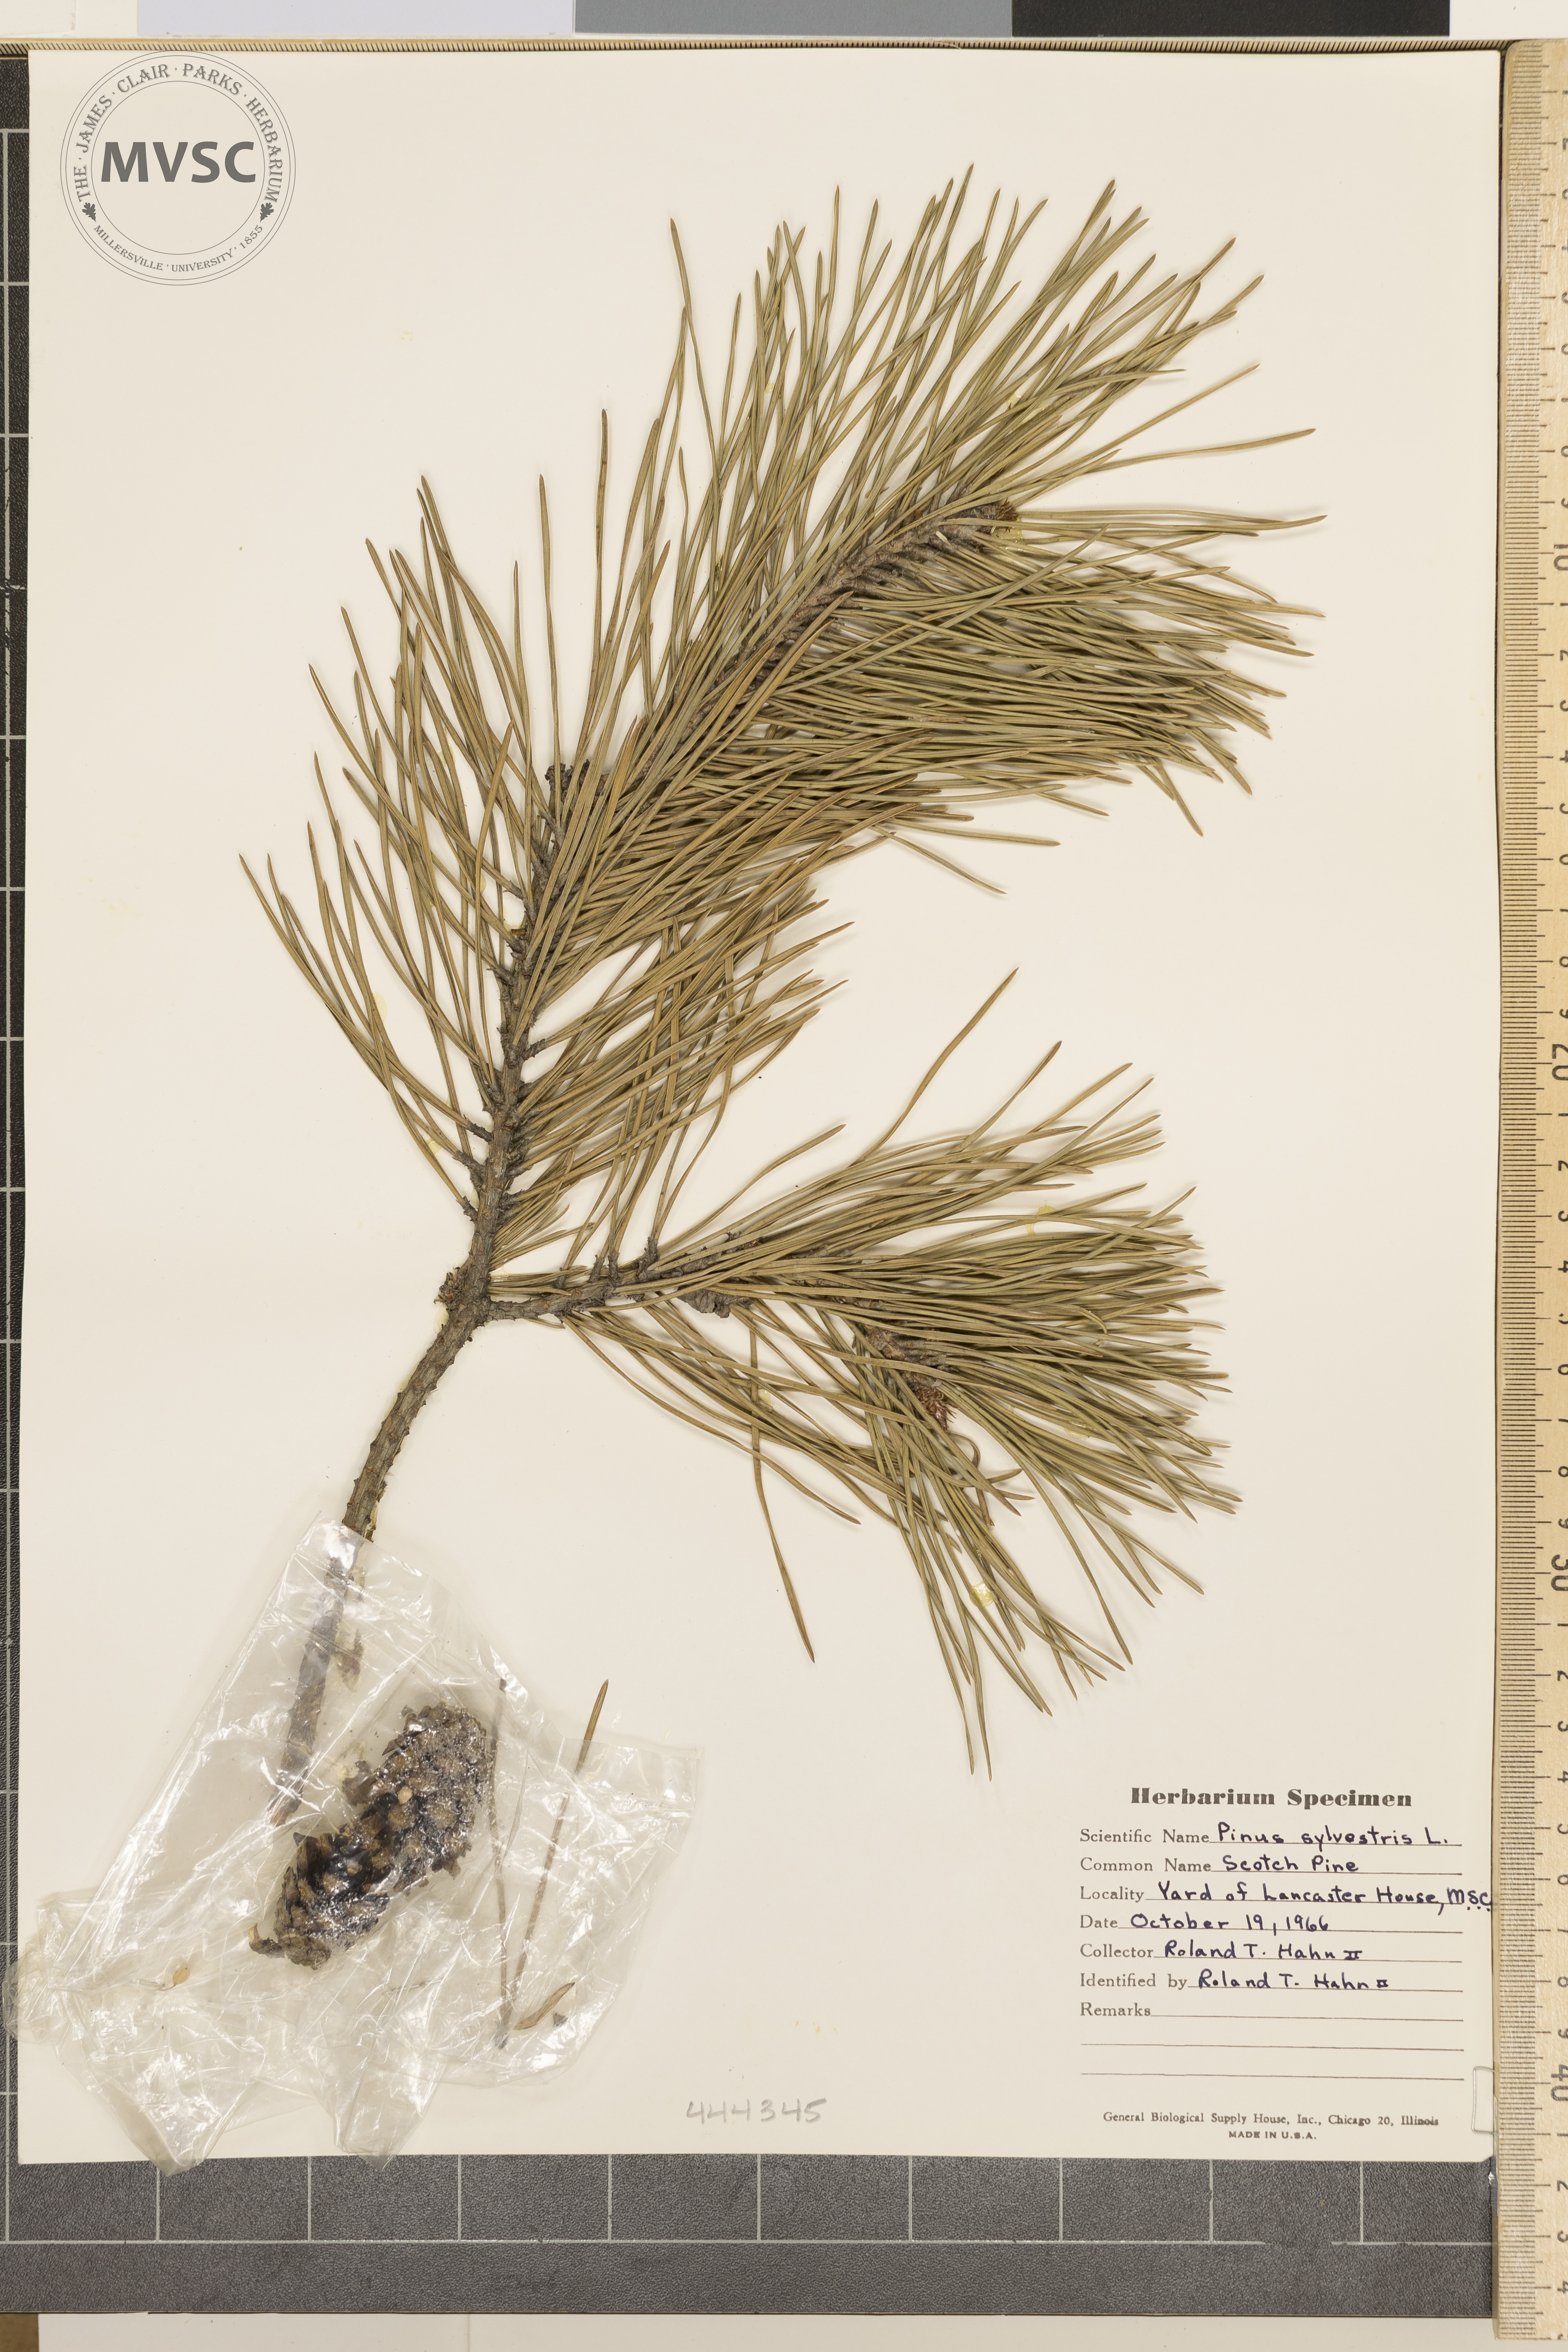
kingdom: Plantae
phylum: Tracheophyta
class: Pinopsida
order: Pinales
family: Pinaceae
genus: Pinus
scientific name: Pinus sylvestris
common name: Scotch Pine
